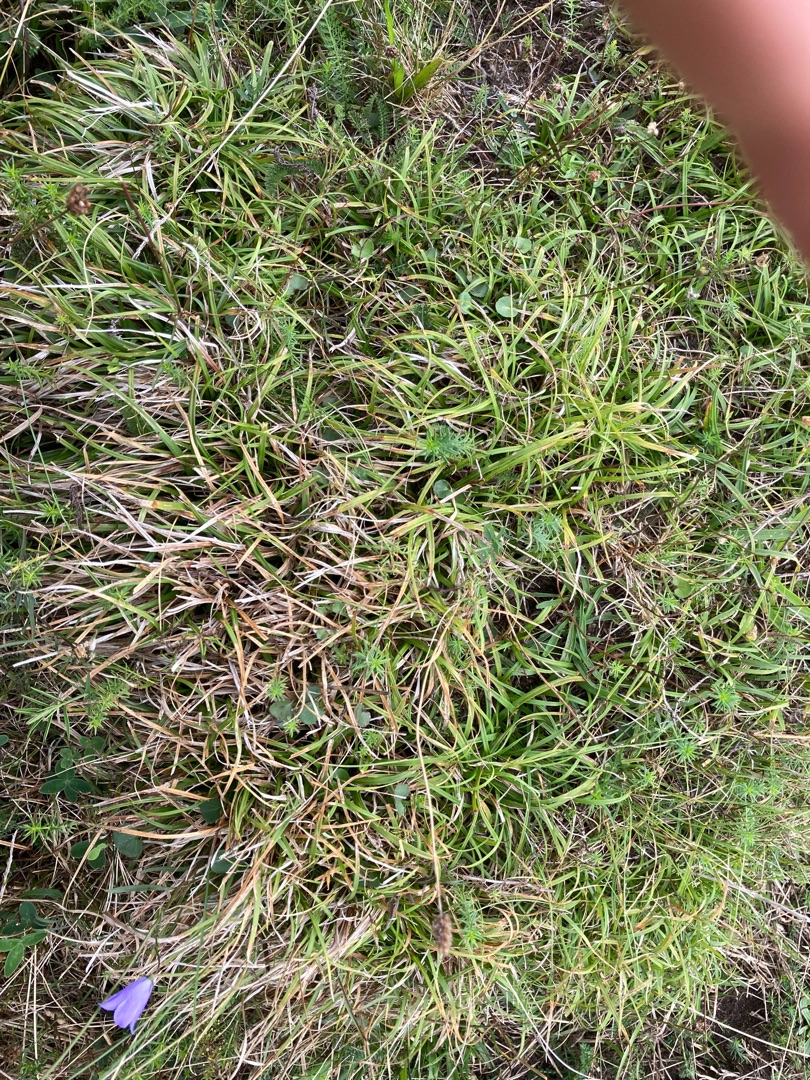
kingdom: Plantae
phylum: Tracheophyta
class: Liliopsida
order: Poales
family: Cyperaceae
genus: Carex
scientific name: Carex caryophyllea
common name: Vår-star
